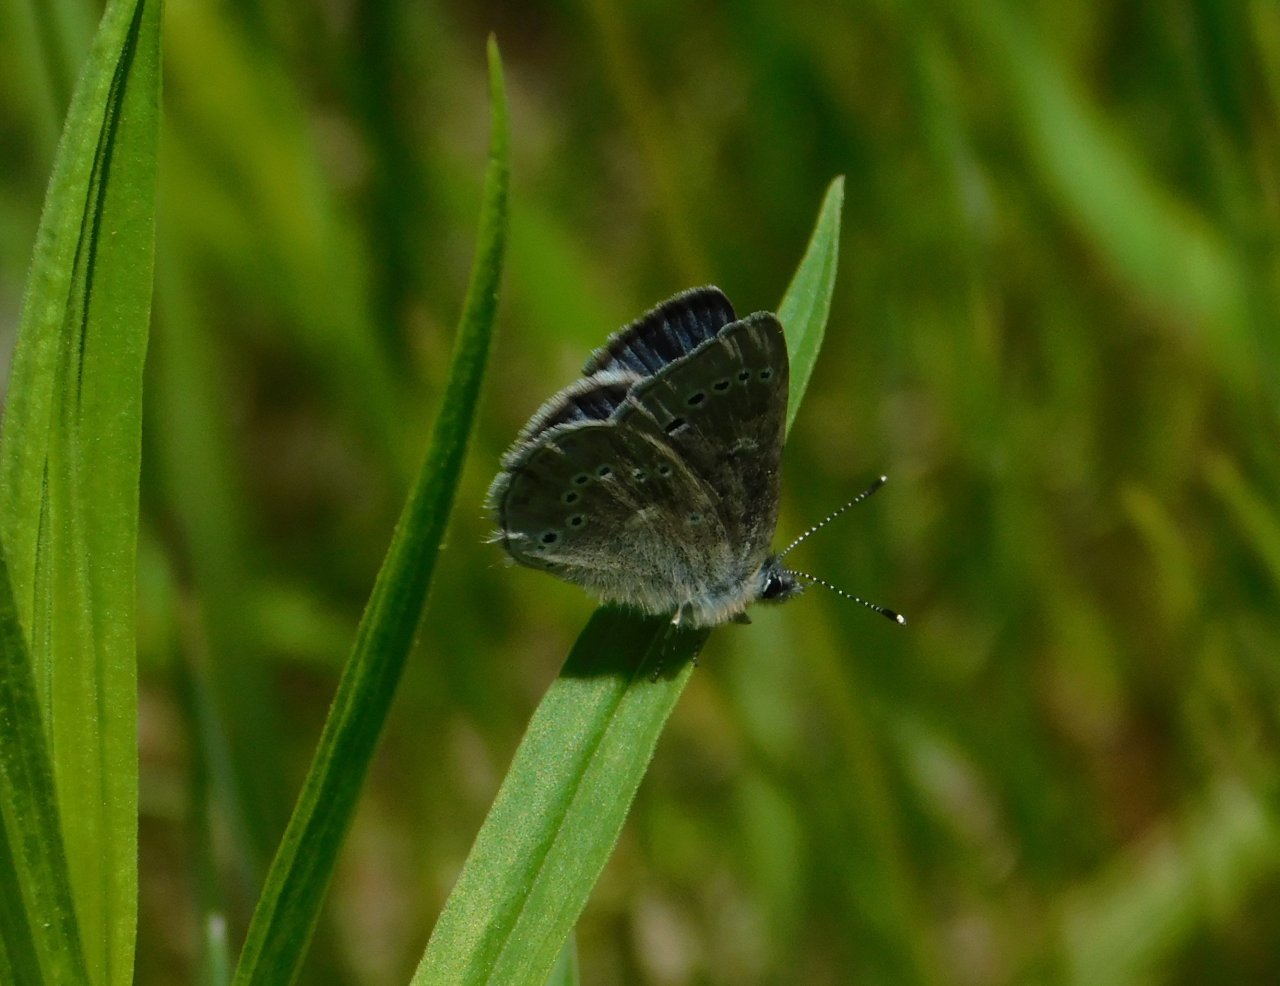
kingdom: Animalia
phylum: Arthropoda
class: Insecta
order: Lepidoptera
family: Lycaenidae
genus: Glaucopsyche
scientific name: Glaucopsyche lygdamus
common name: Silvery Blue
